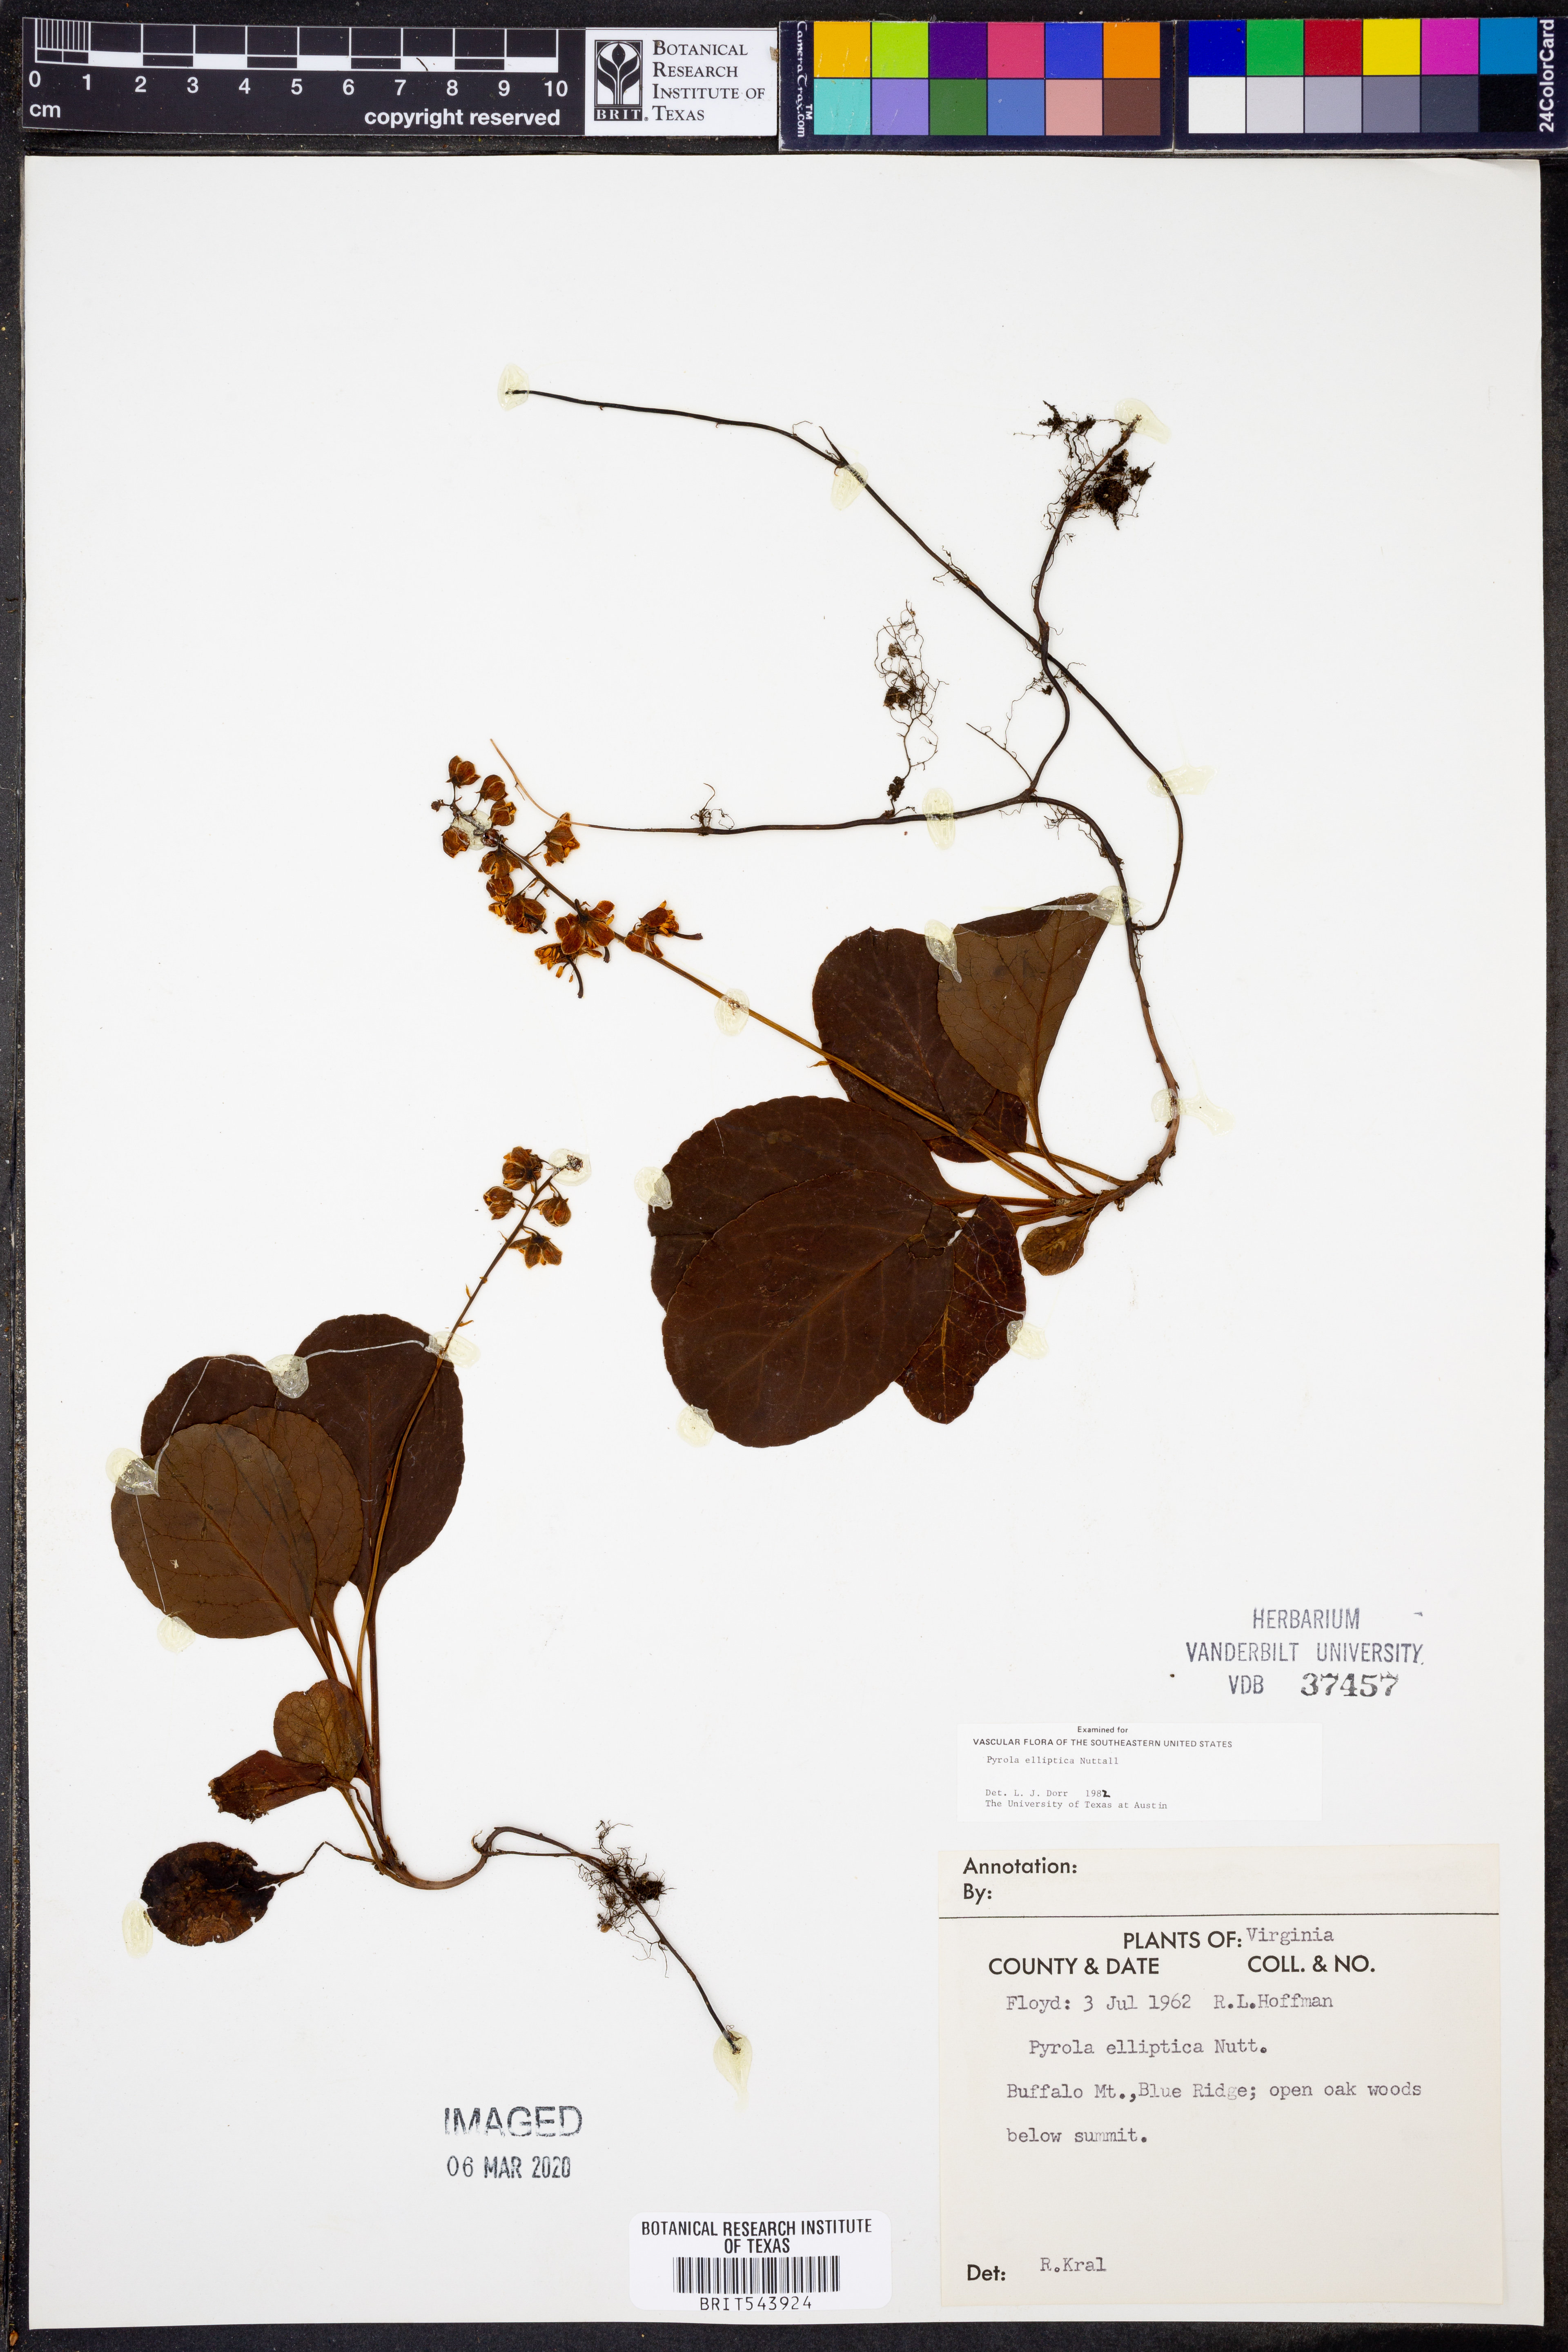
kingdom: Plantae
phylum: Tracheophyta
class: Magnoliopsida
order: Ericales
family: Ericaceae
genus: Pyrola
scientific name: Pyrola elliptica
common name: Shinleaf
